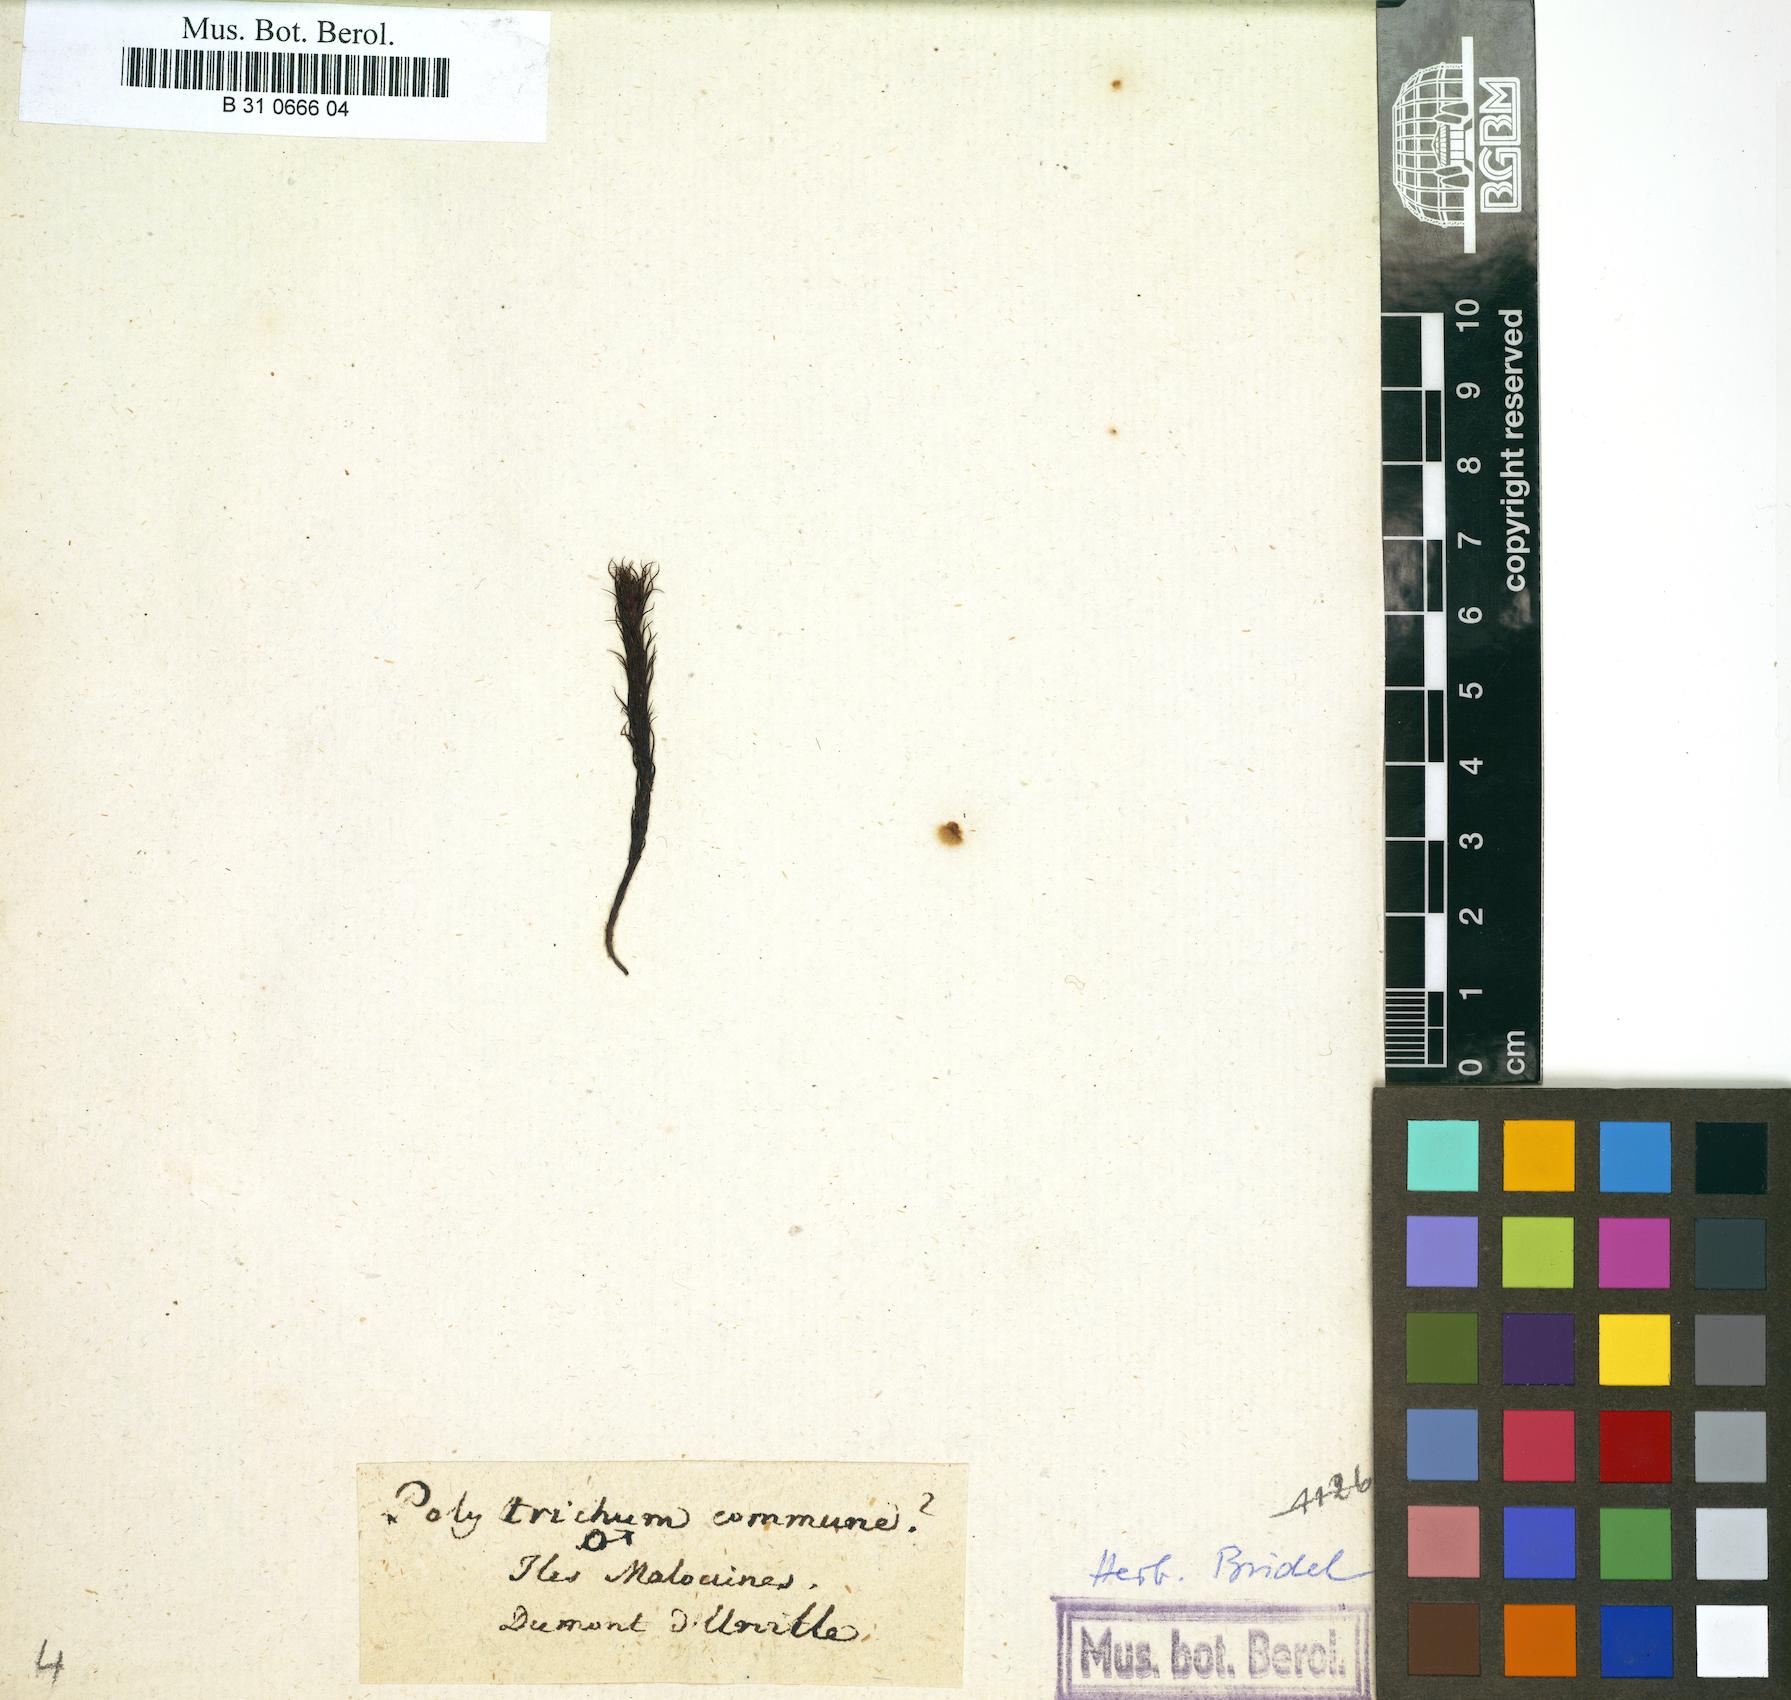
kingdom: Plantae
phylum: Bryophyta
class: Polytrichopsida
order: Polytrichales
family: Polytrichaceae
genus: Polytrichum
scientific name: Polytrichum commune
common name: Common haircap
